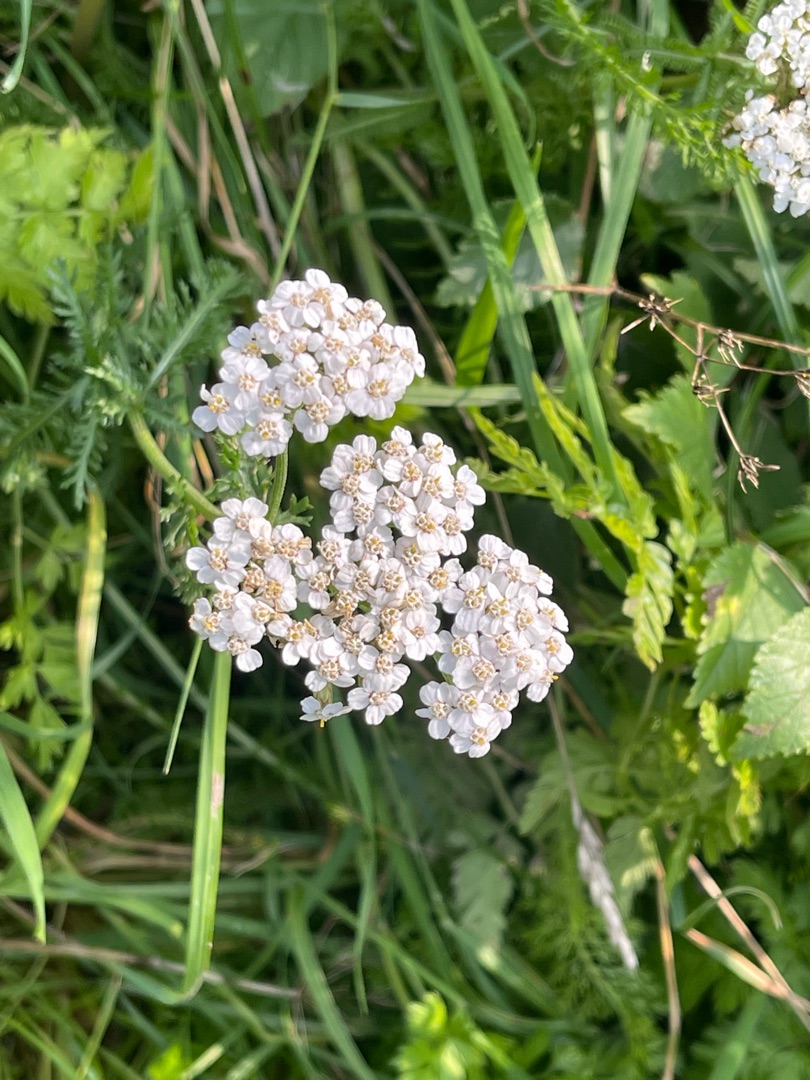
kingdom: Plantae
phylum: Tracheophyta
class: Magnoliopsida
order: Asterales
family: Asteraceae
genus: Achillea
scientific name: Achillea millefolium
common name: Almindelig røllike
